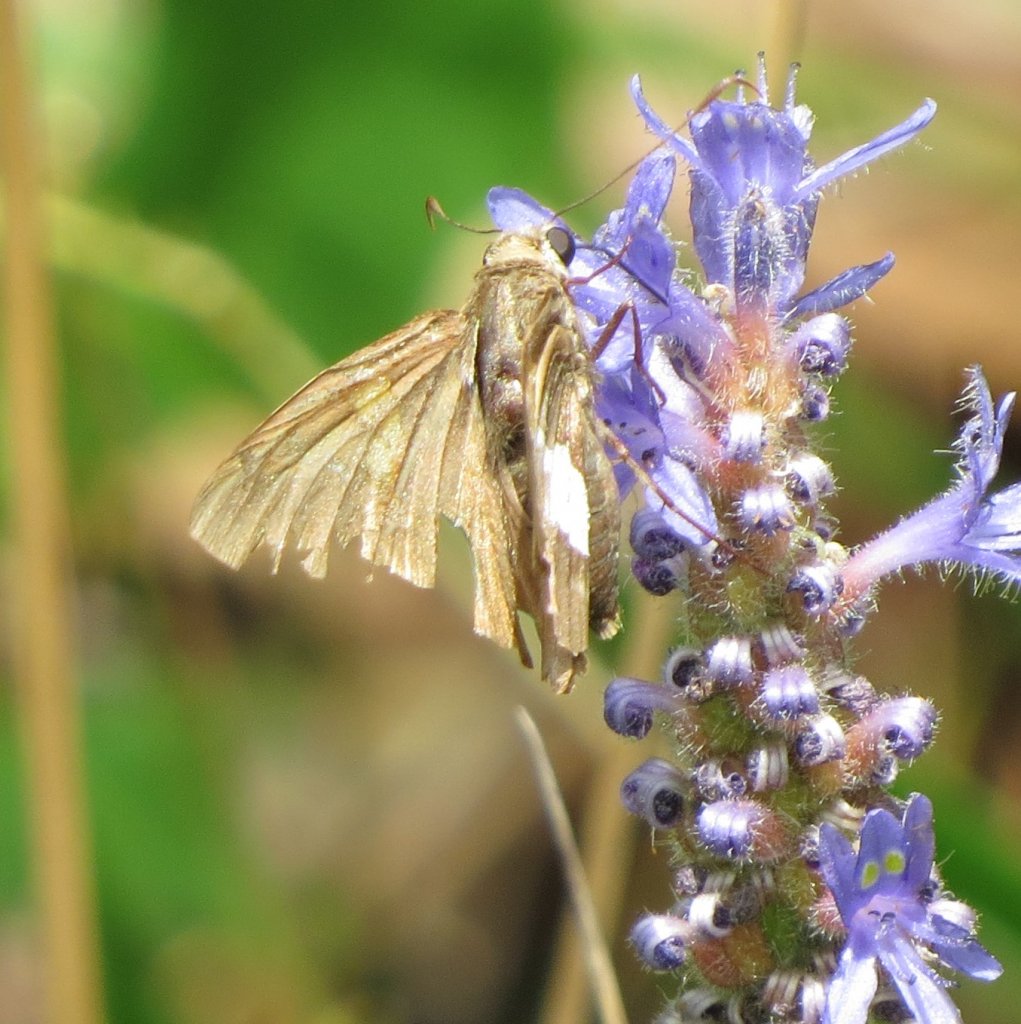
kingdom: Animalia
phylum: Arthropoda
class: Insecta
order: Lepidoptera
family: Hesperiidae
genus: Epargyreus
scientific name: Epargyreus clarus
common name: Silver-spotted Skipper
